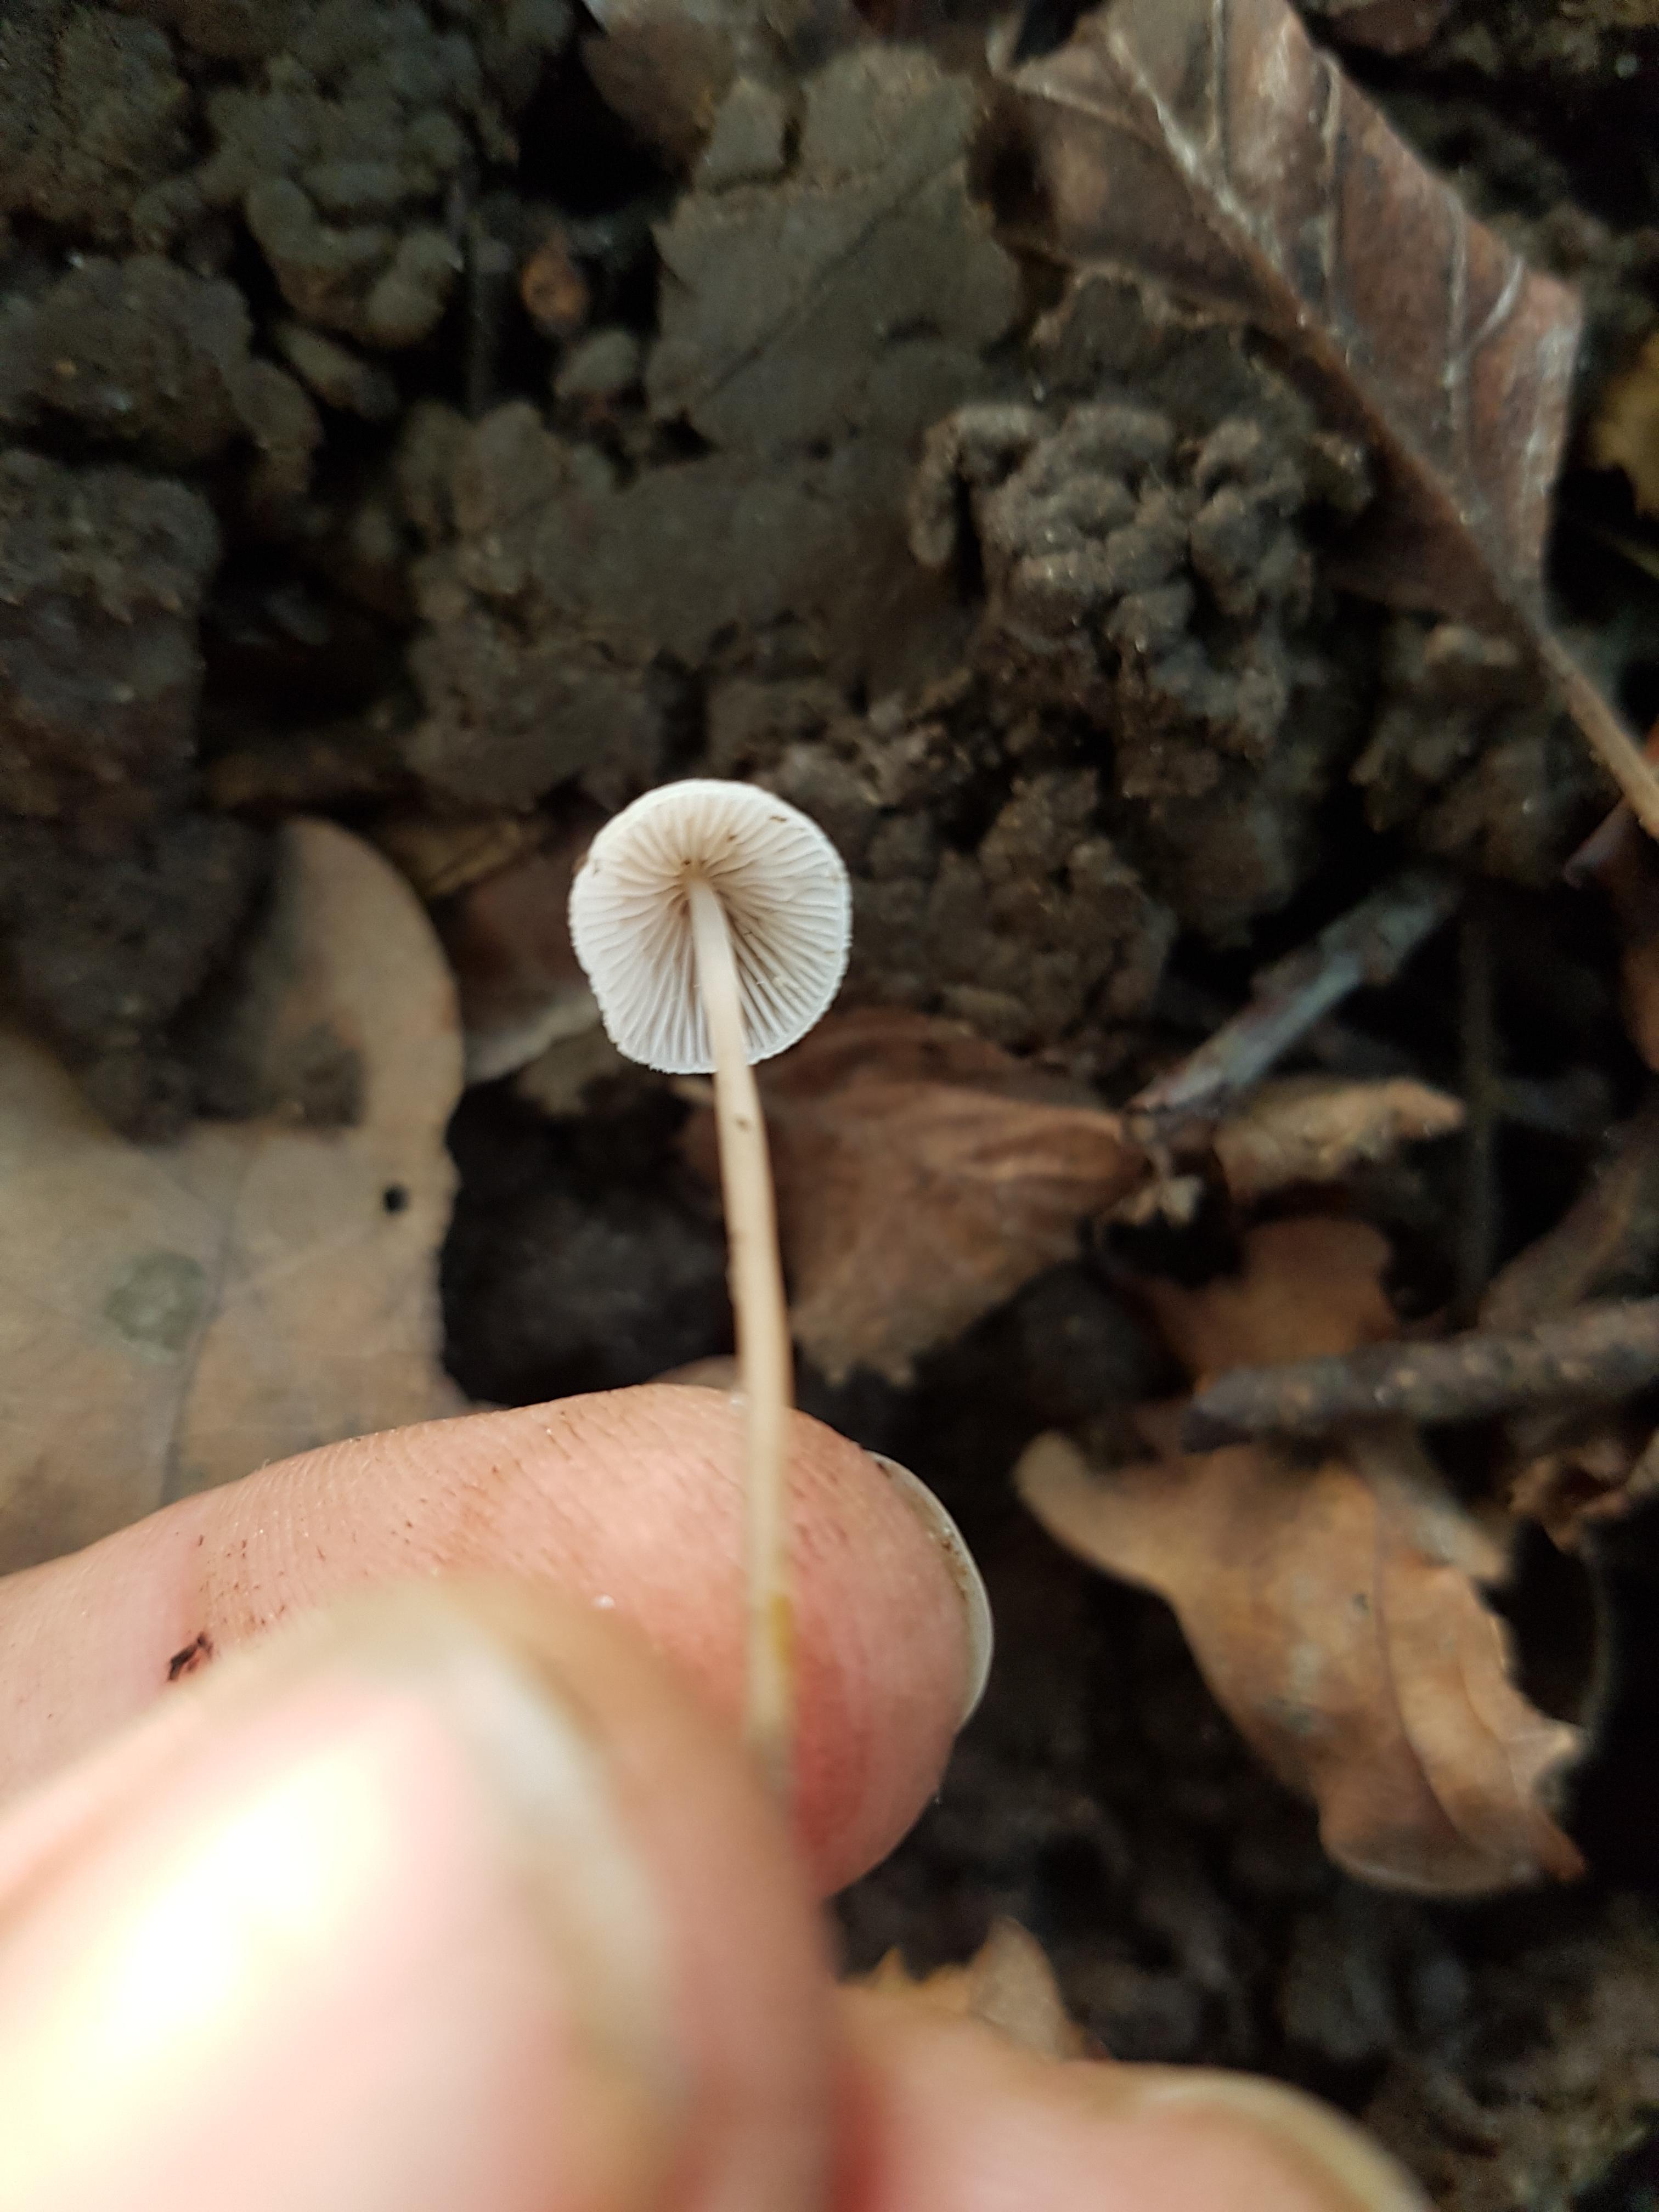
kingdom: Fungi
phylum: Basidiomycota
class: Agaricomycetes
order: Agaricales
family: Mycenaceae
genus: Mycena
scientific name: Mycena
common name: huesvamp
